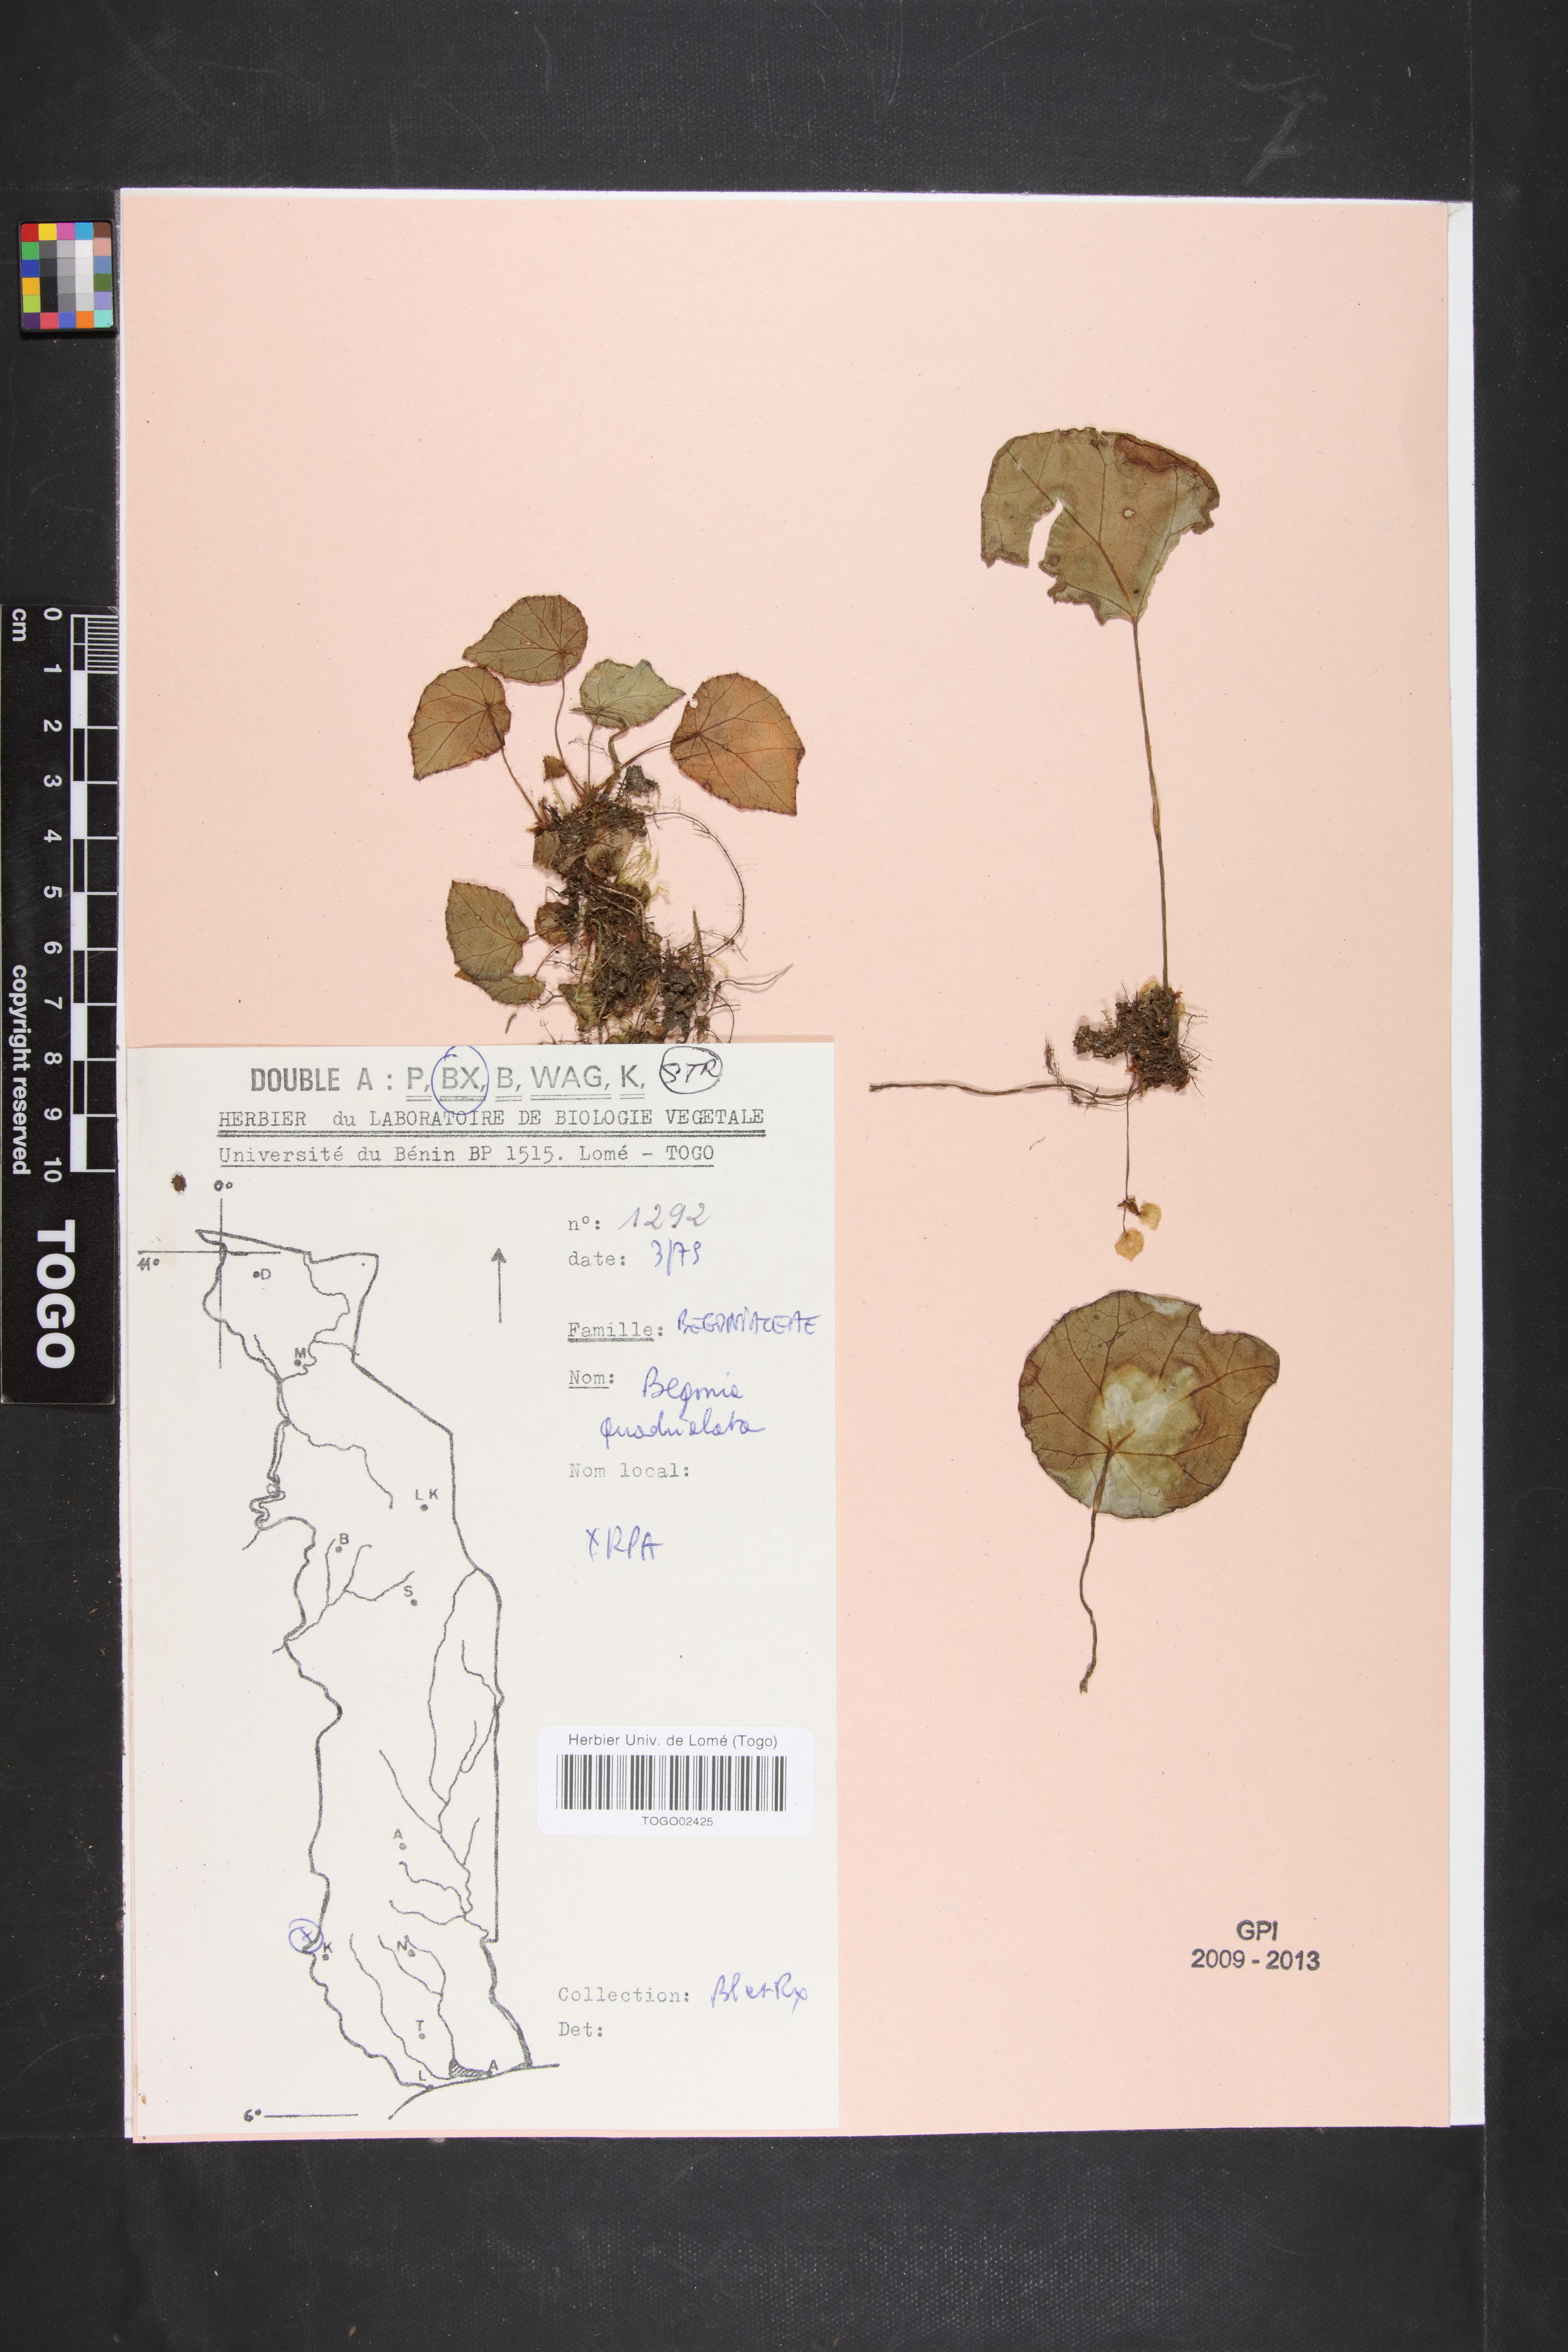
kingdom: Plantae
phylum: Tracheophyta
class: Magnoliopsida
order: Cucurbitales
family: Begoniaceae
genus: Begonia
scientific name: Begonia quadrialata
